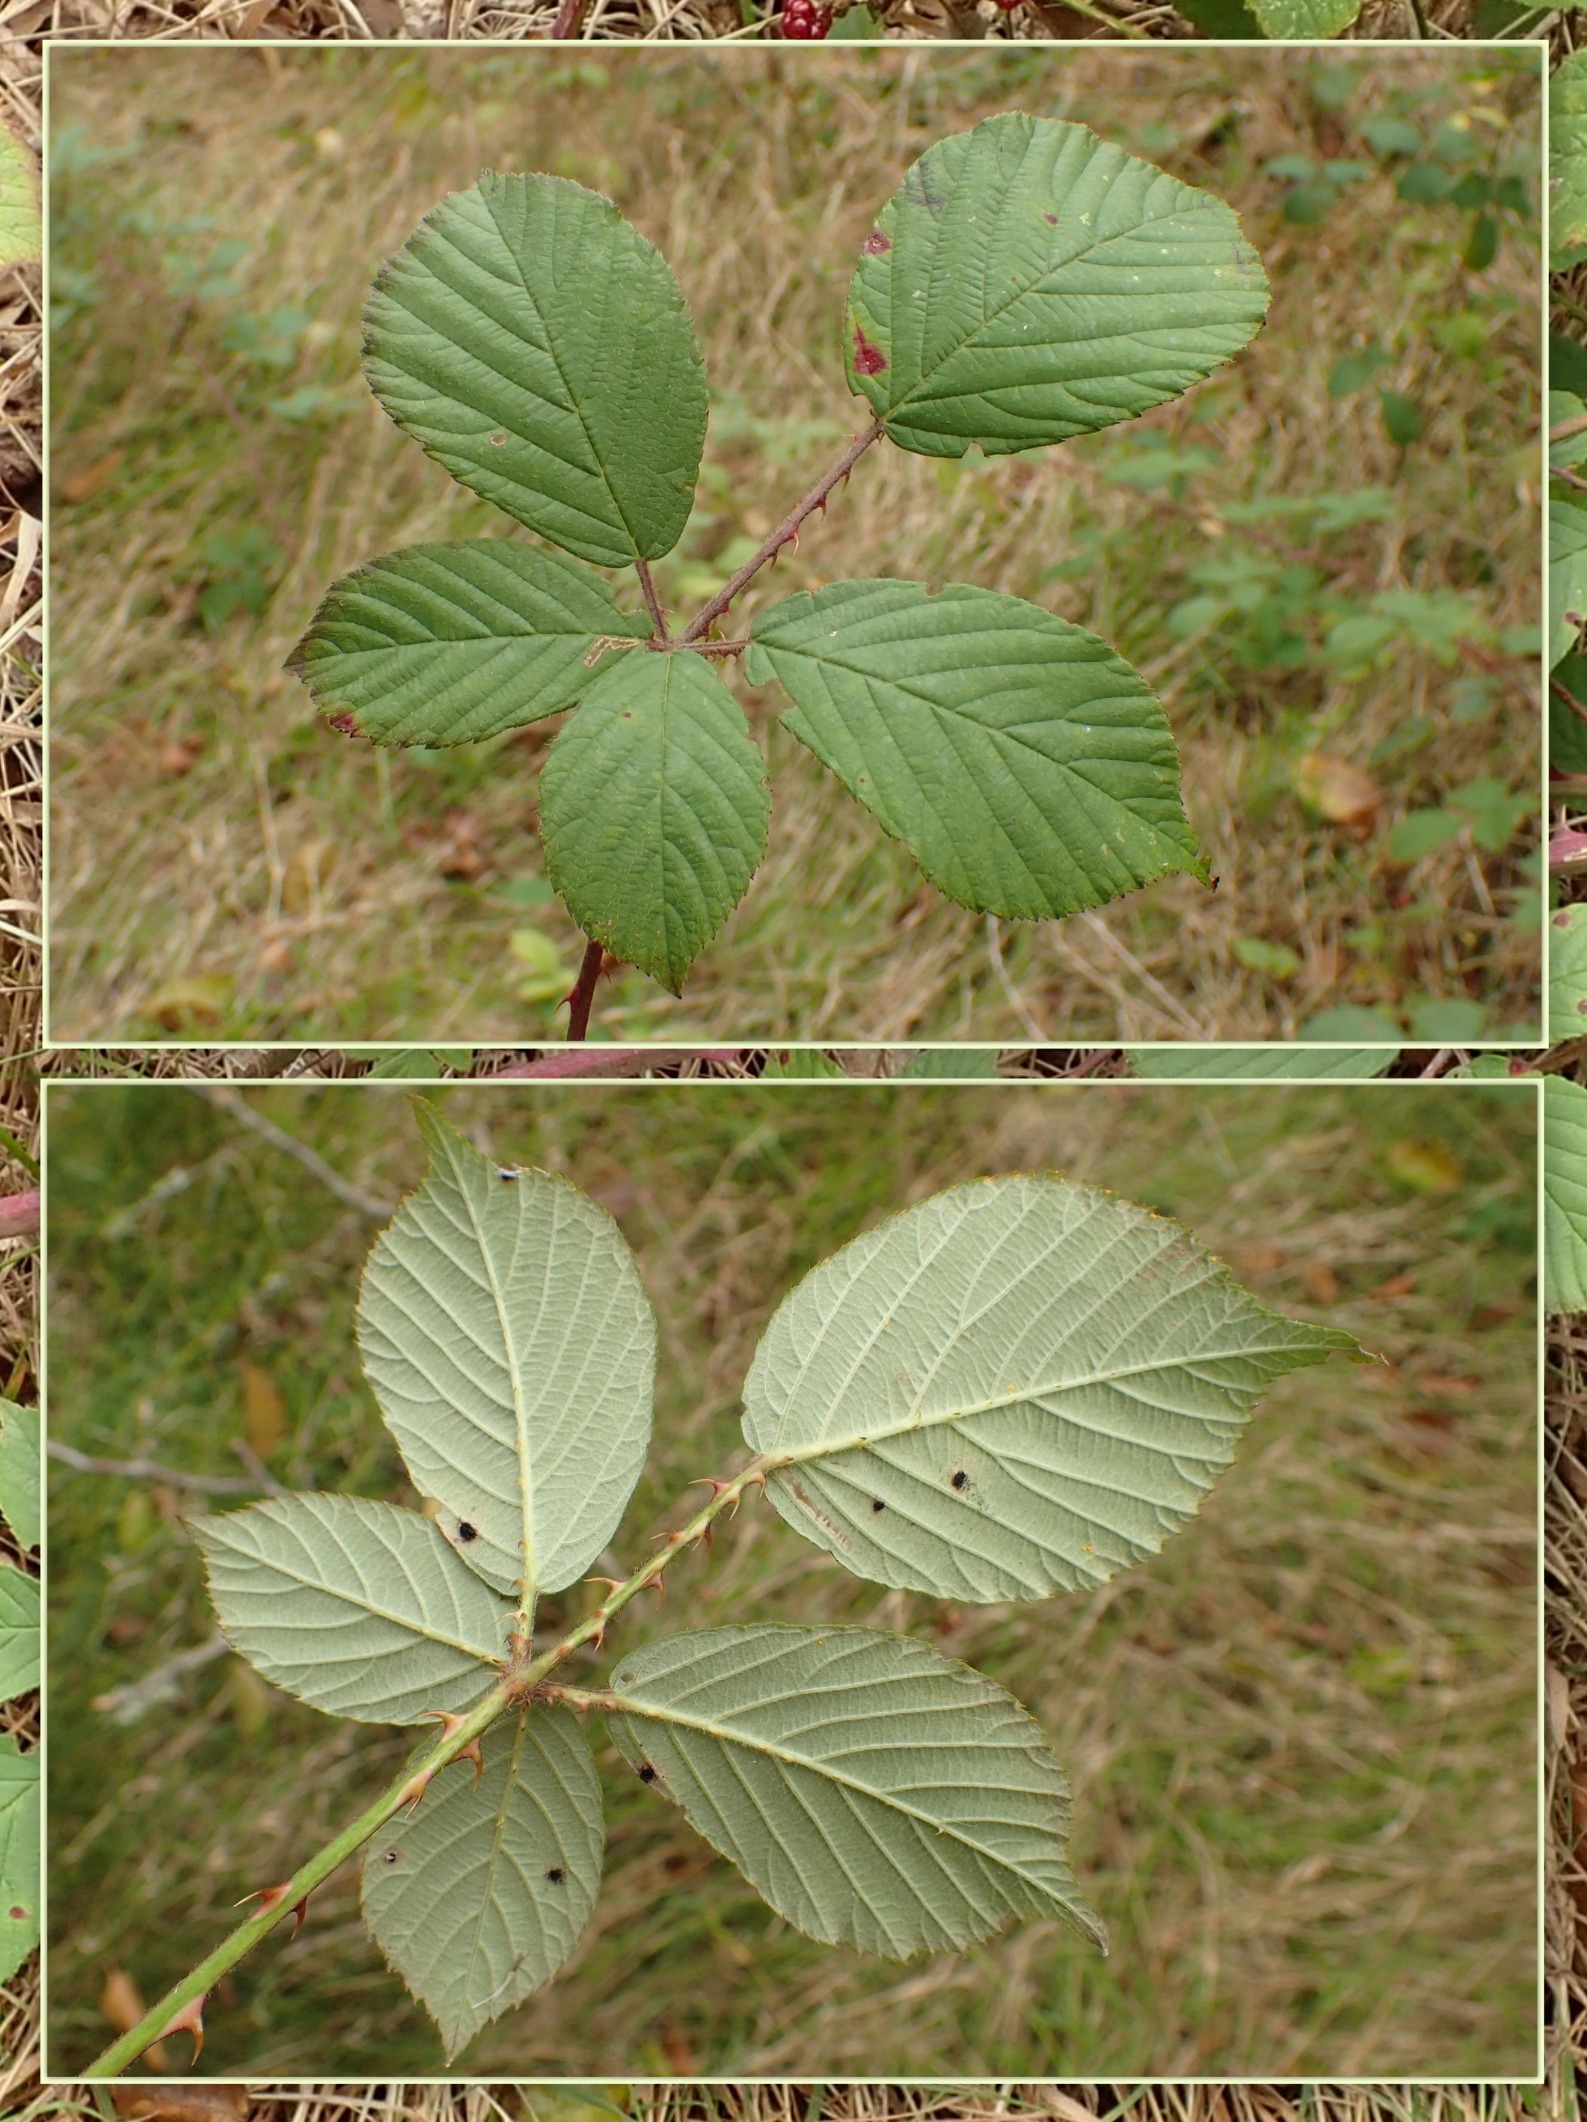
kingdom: Plantae
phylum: Tracheophyta
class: Magnoliopsida
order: Rosales
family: Rosaceae
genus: Rubus
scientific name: Rubus lindebergii
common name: Lindebergs brombær
